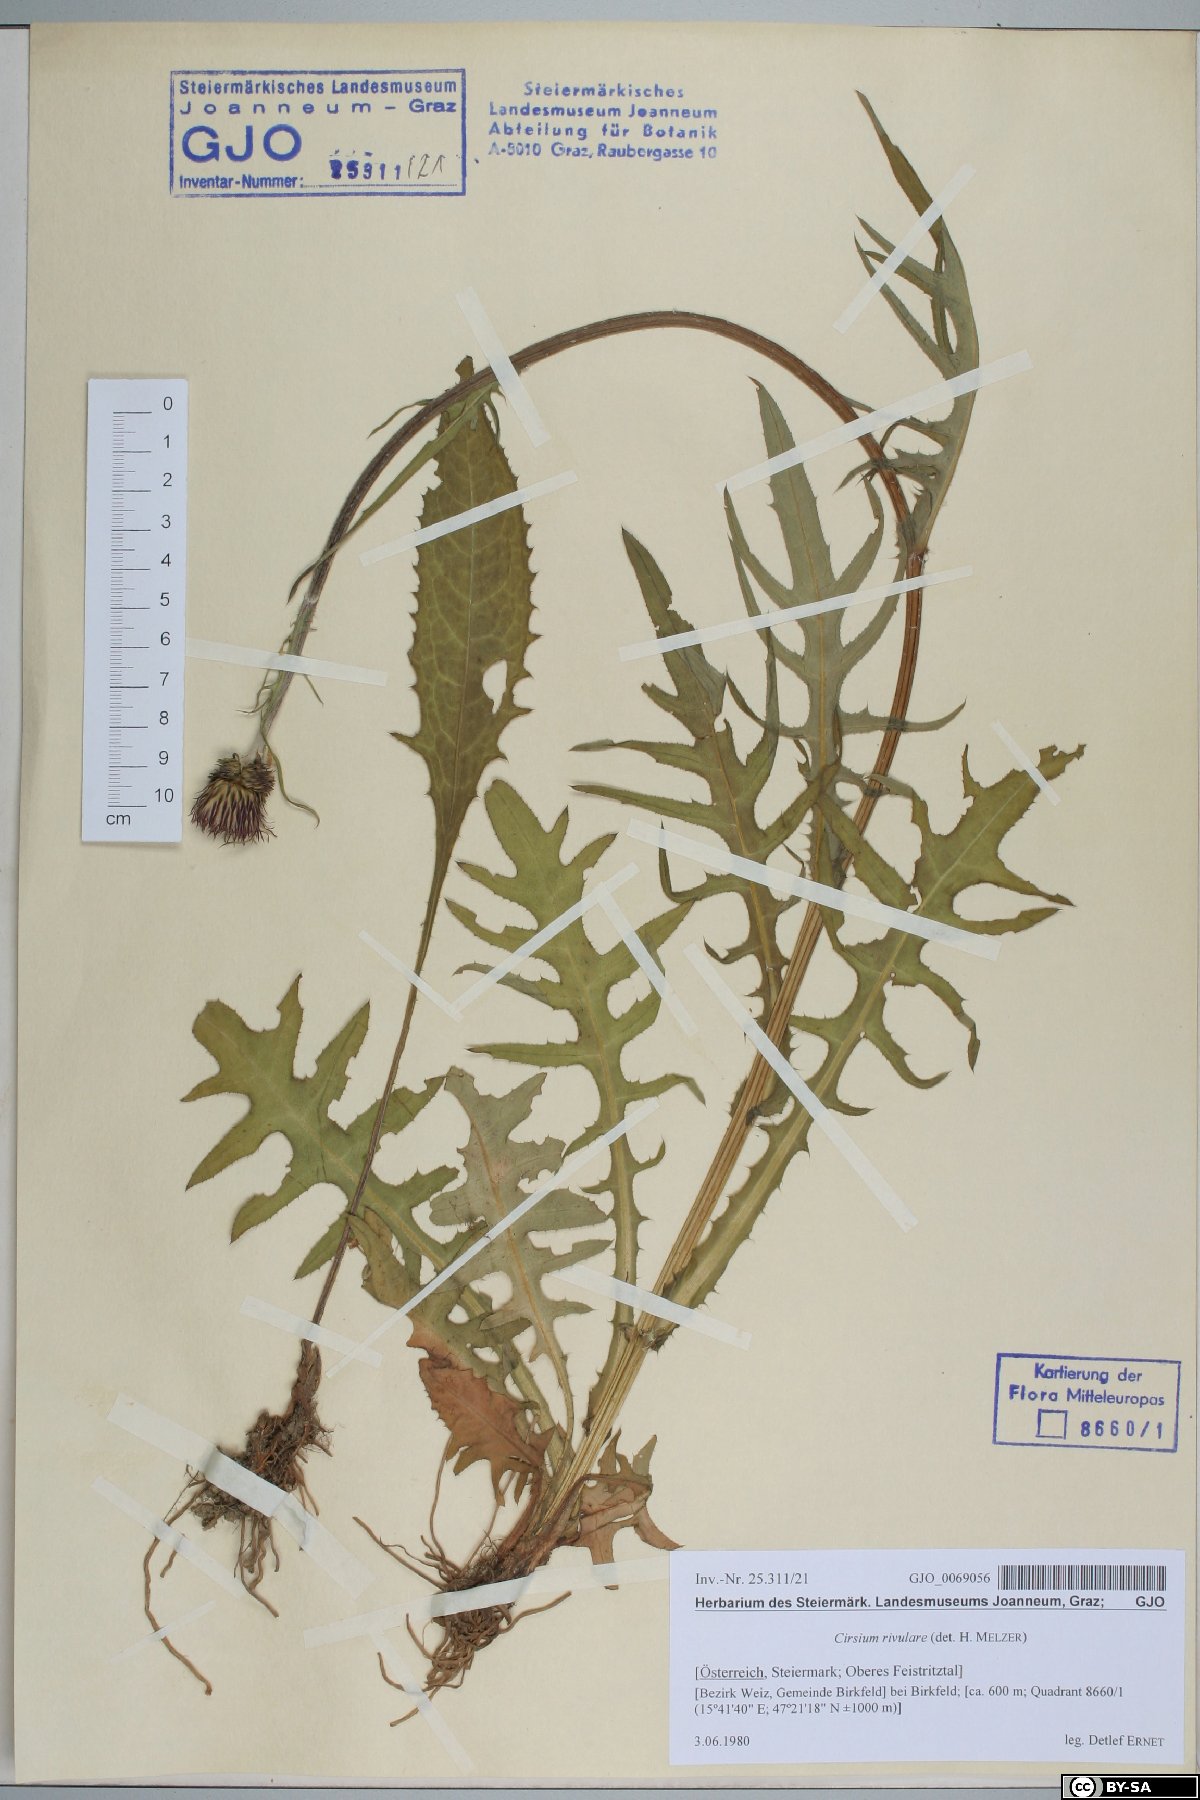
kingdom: Plantae
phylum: Tracheophyta
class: Magnoliopsida
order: Asterales
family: Asteraceae
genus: Cirsium
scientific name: Cirsium rivulare
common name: Brook thistle
